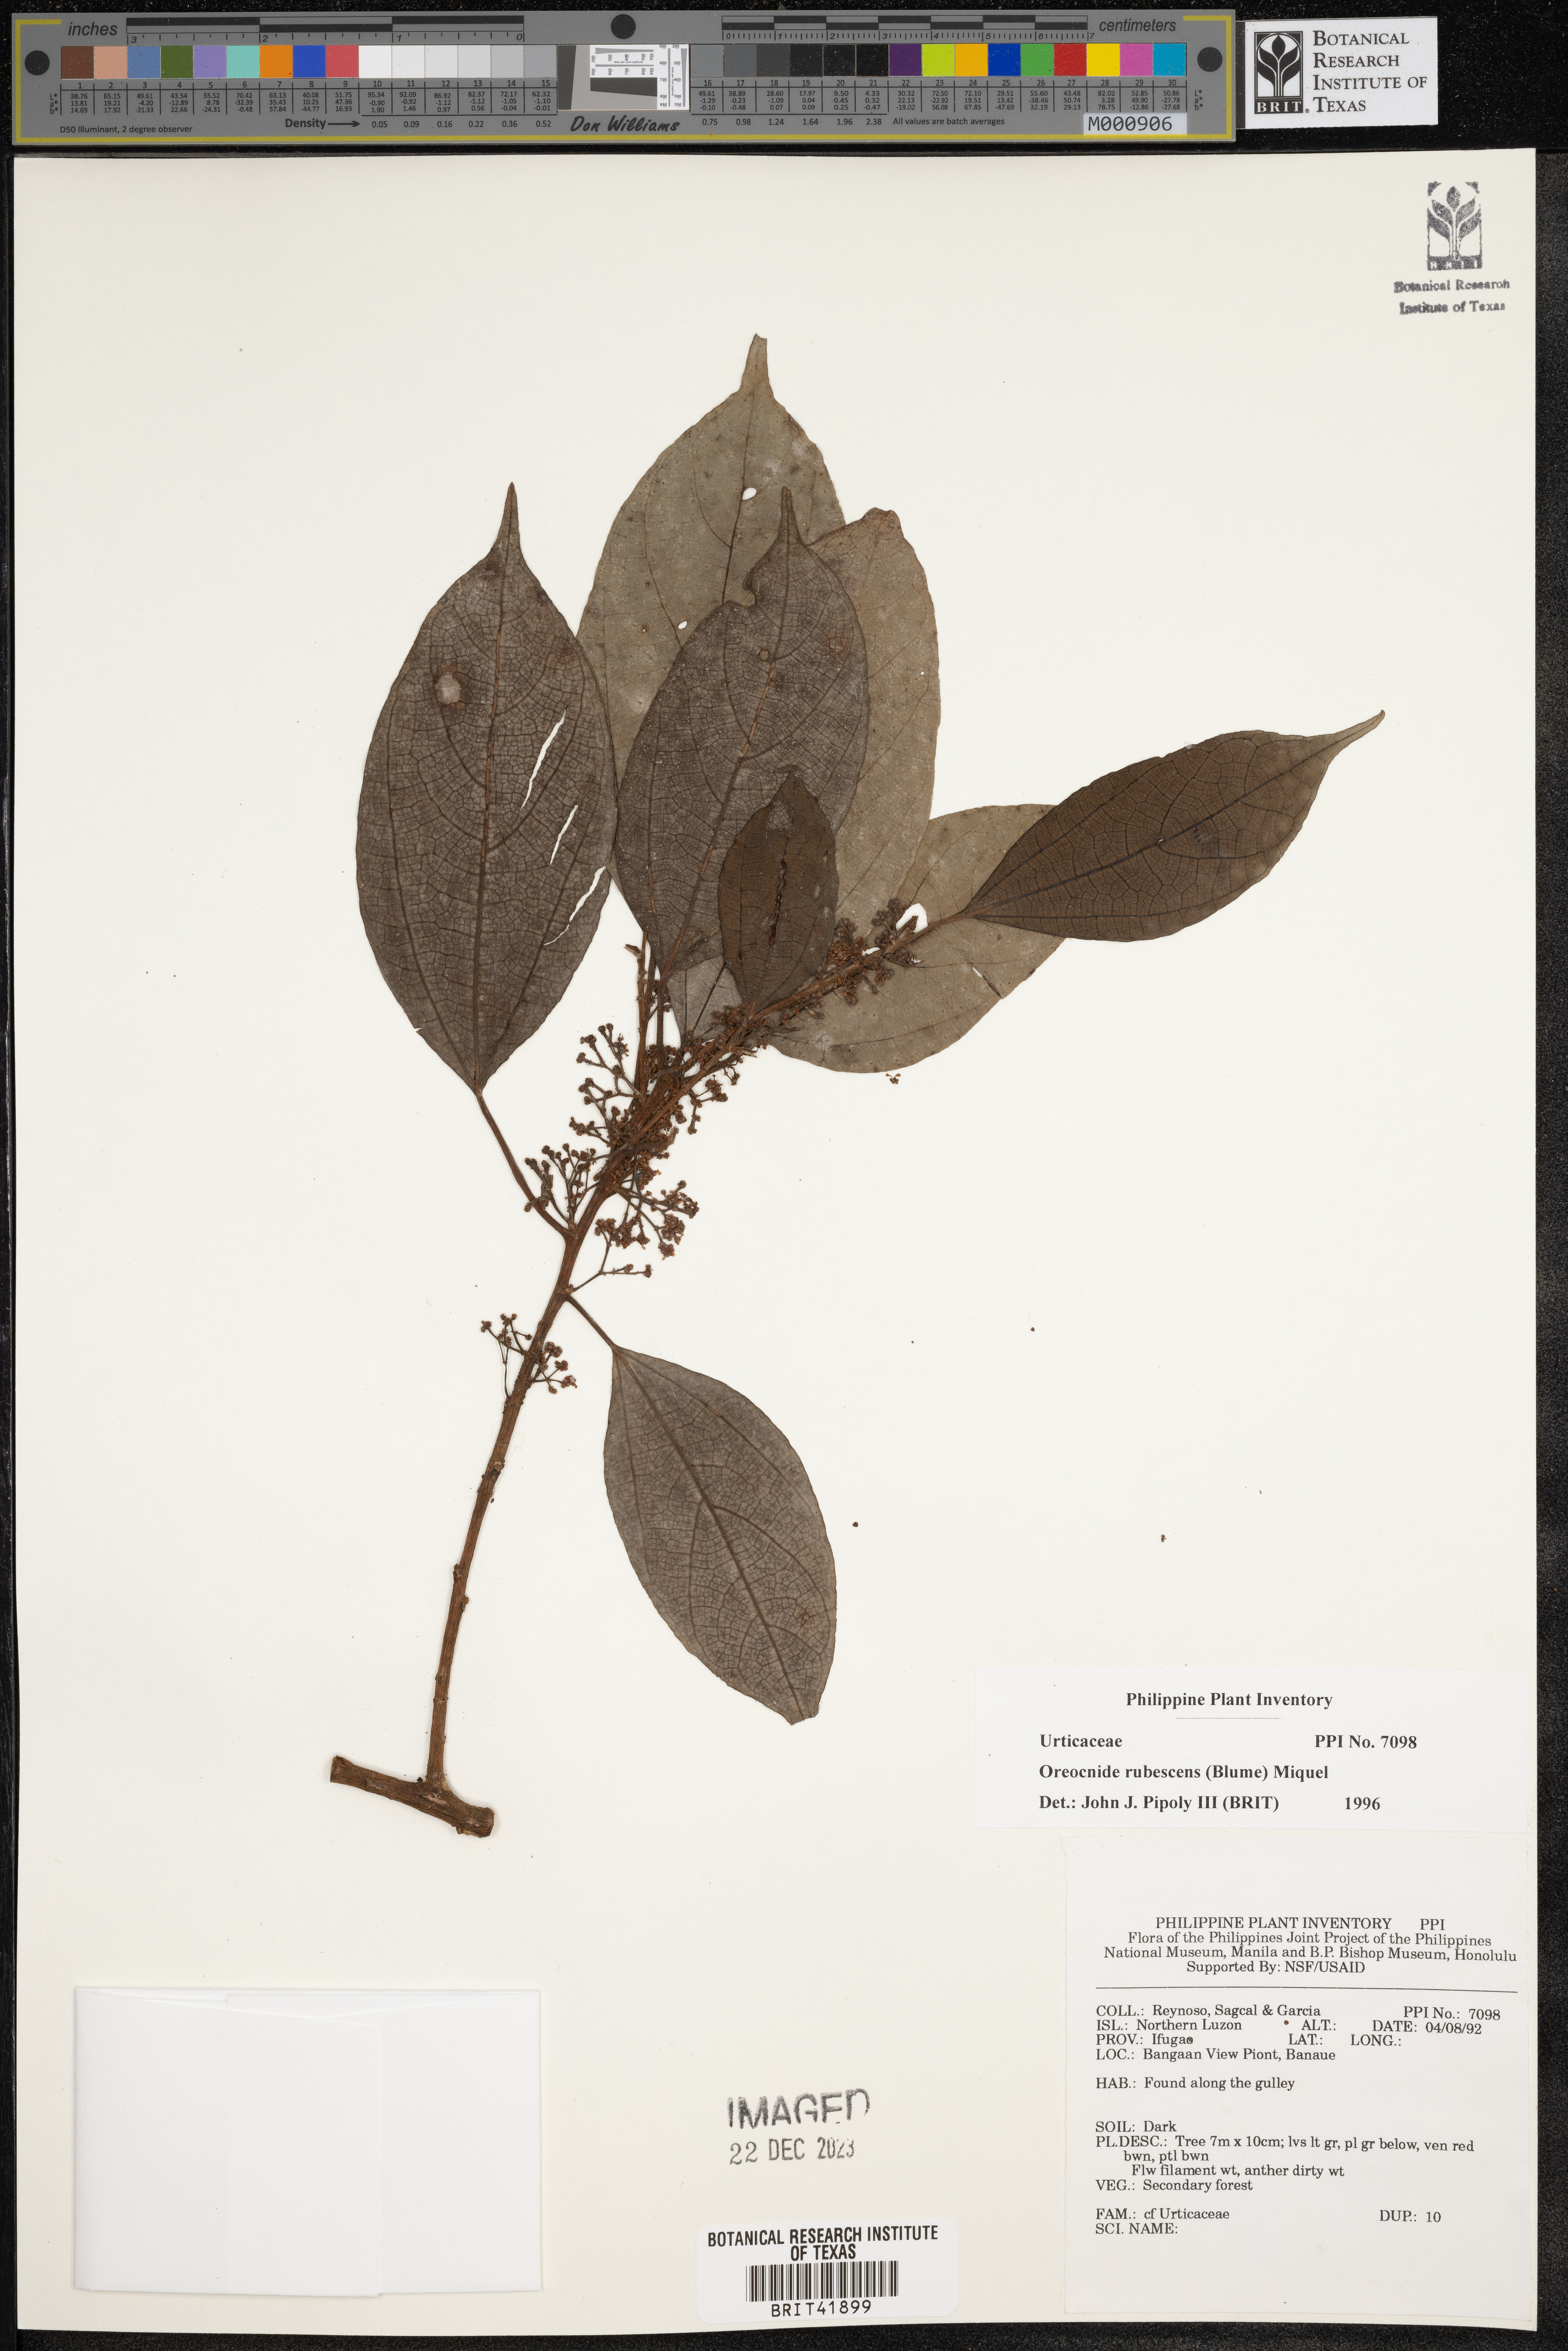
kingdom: Plantae
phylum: Tracheophyta
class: Magnoliopsida
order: Rosales
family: Urticaceae
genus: Oreocnide
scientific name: Oreocnide rubescens
